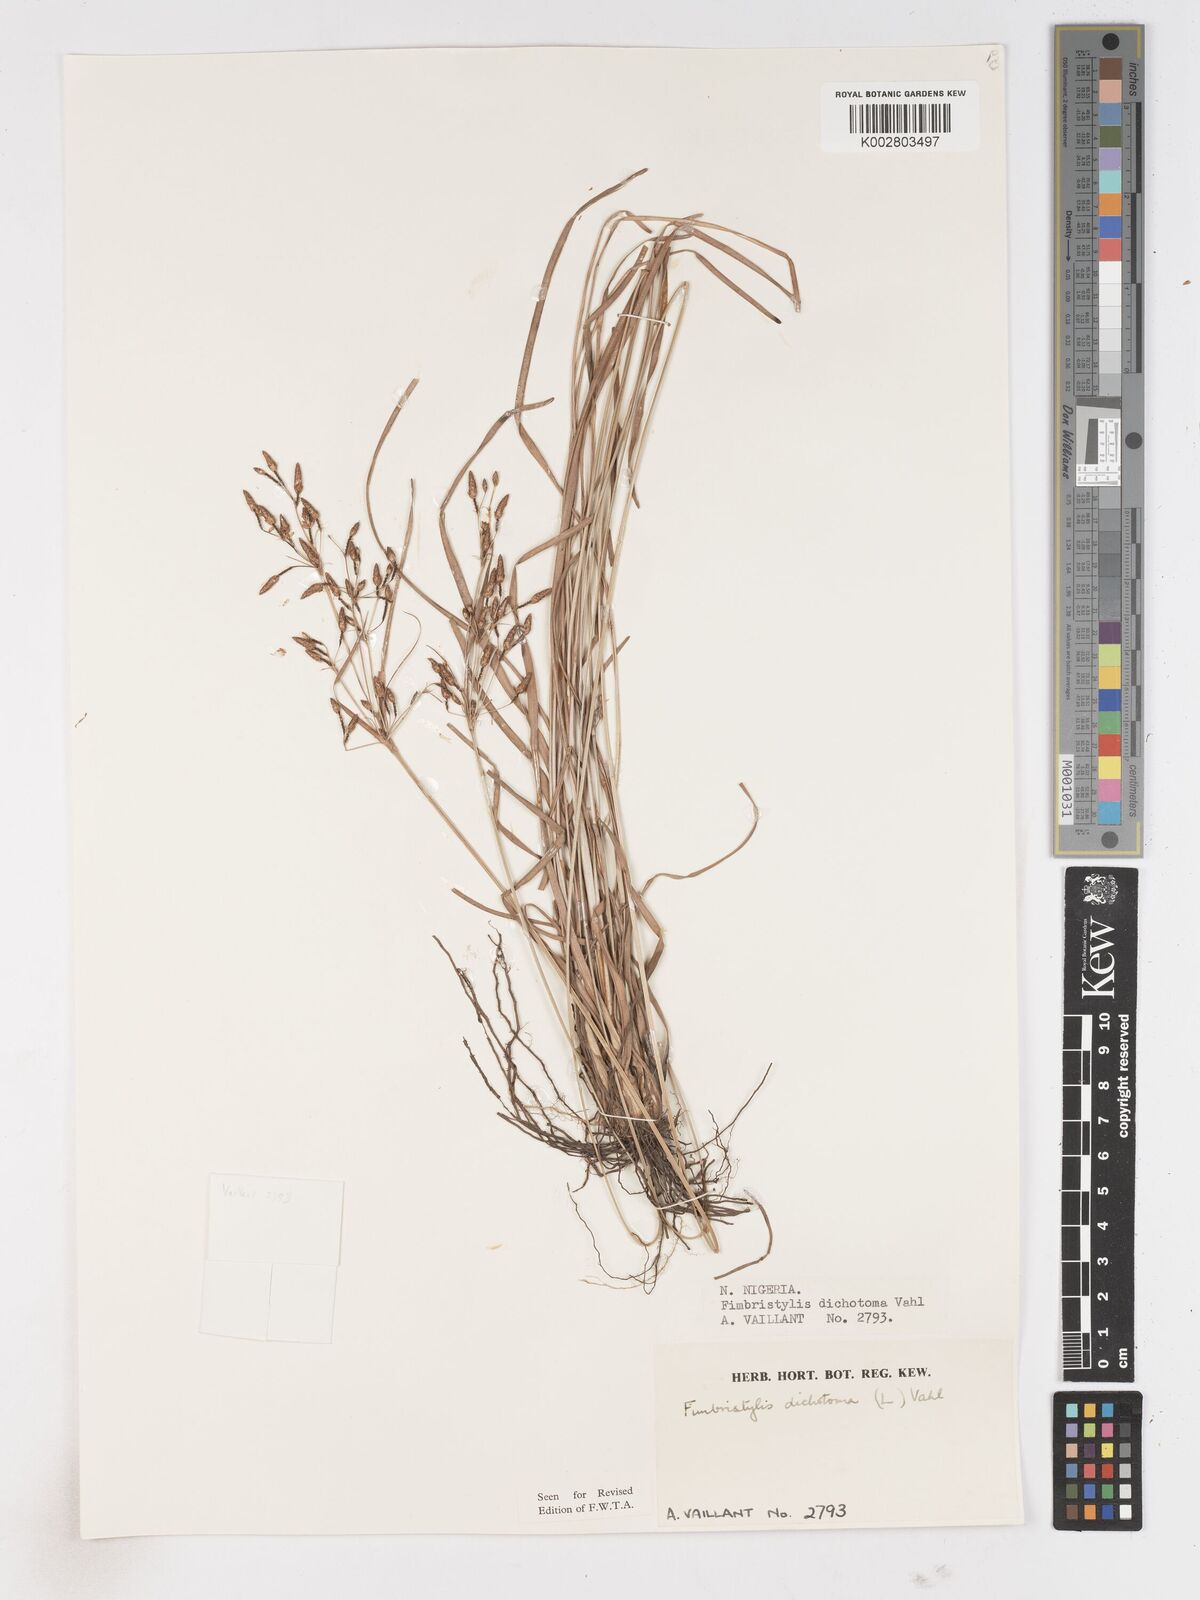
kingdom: Plantae
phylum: Tracheophyta
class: Liliopsida
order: Poales
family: Cyperaceae
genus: Fimbristylis
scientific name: Fimbristylis dichotoma
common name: Forked fimbry
